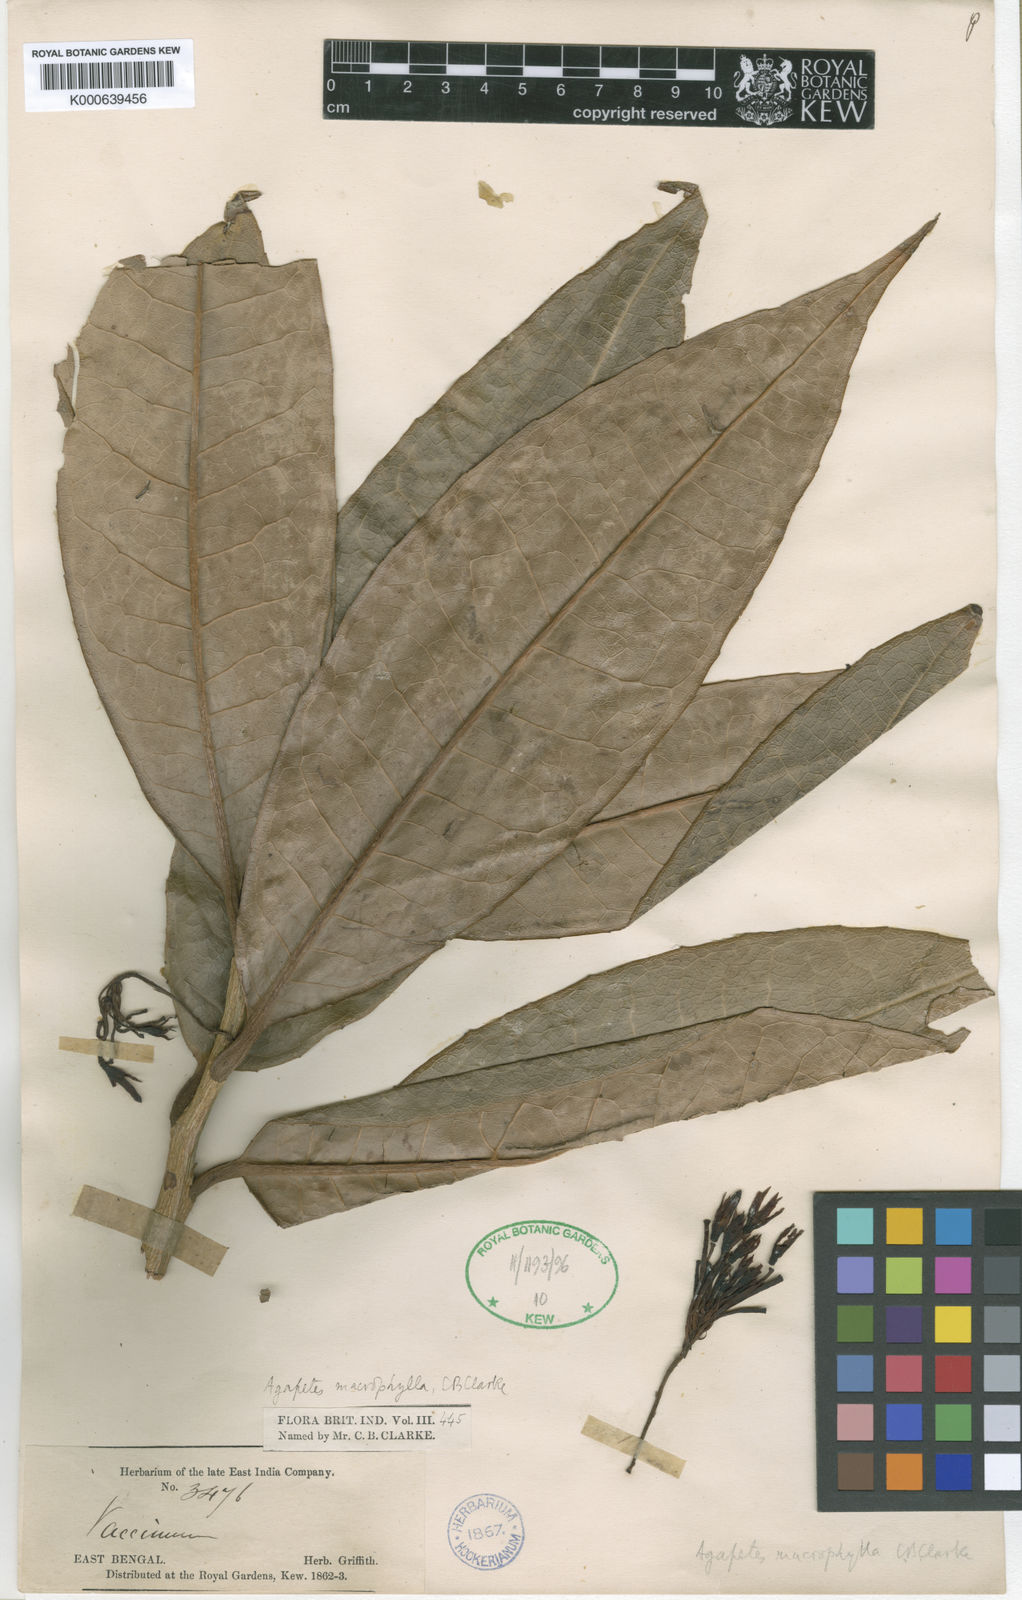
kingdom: Plantae
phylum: Tracheophyta
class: Magnoliopsida
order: Ericales
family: Ericaceae
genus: Agapetes
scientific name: Agapetes miniata
